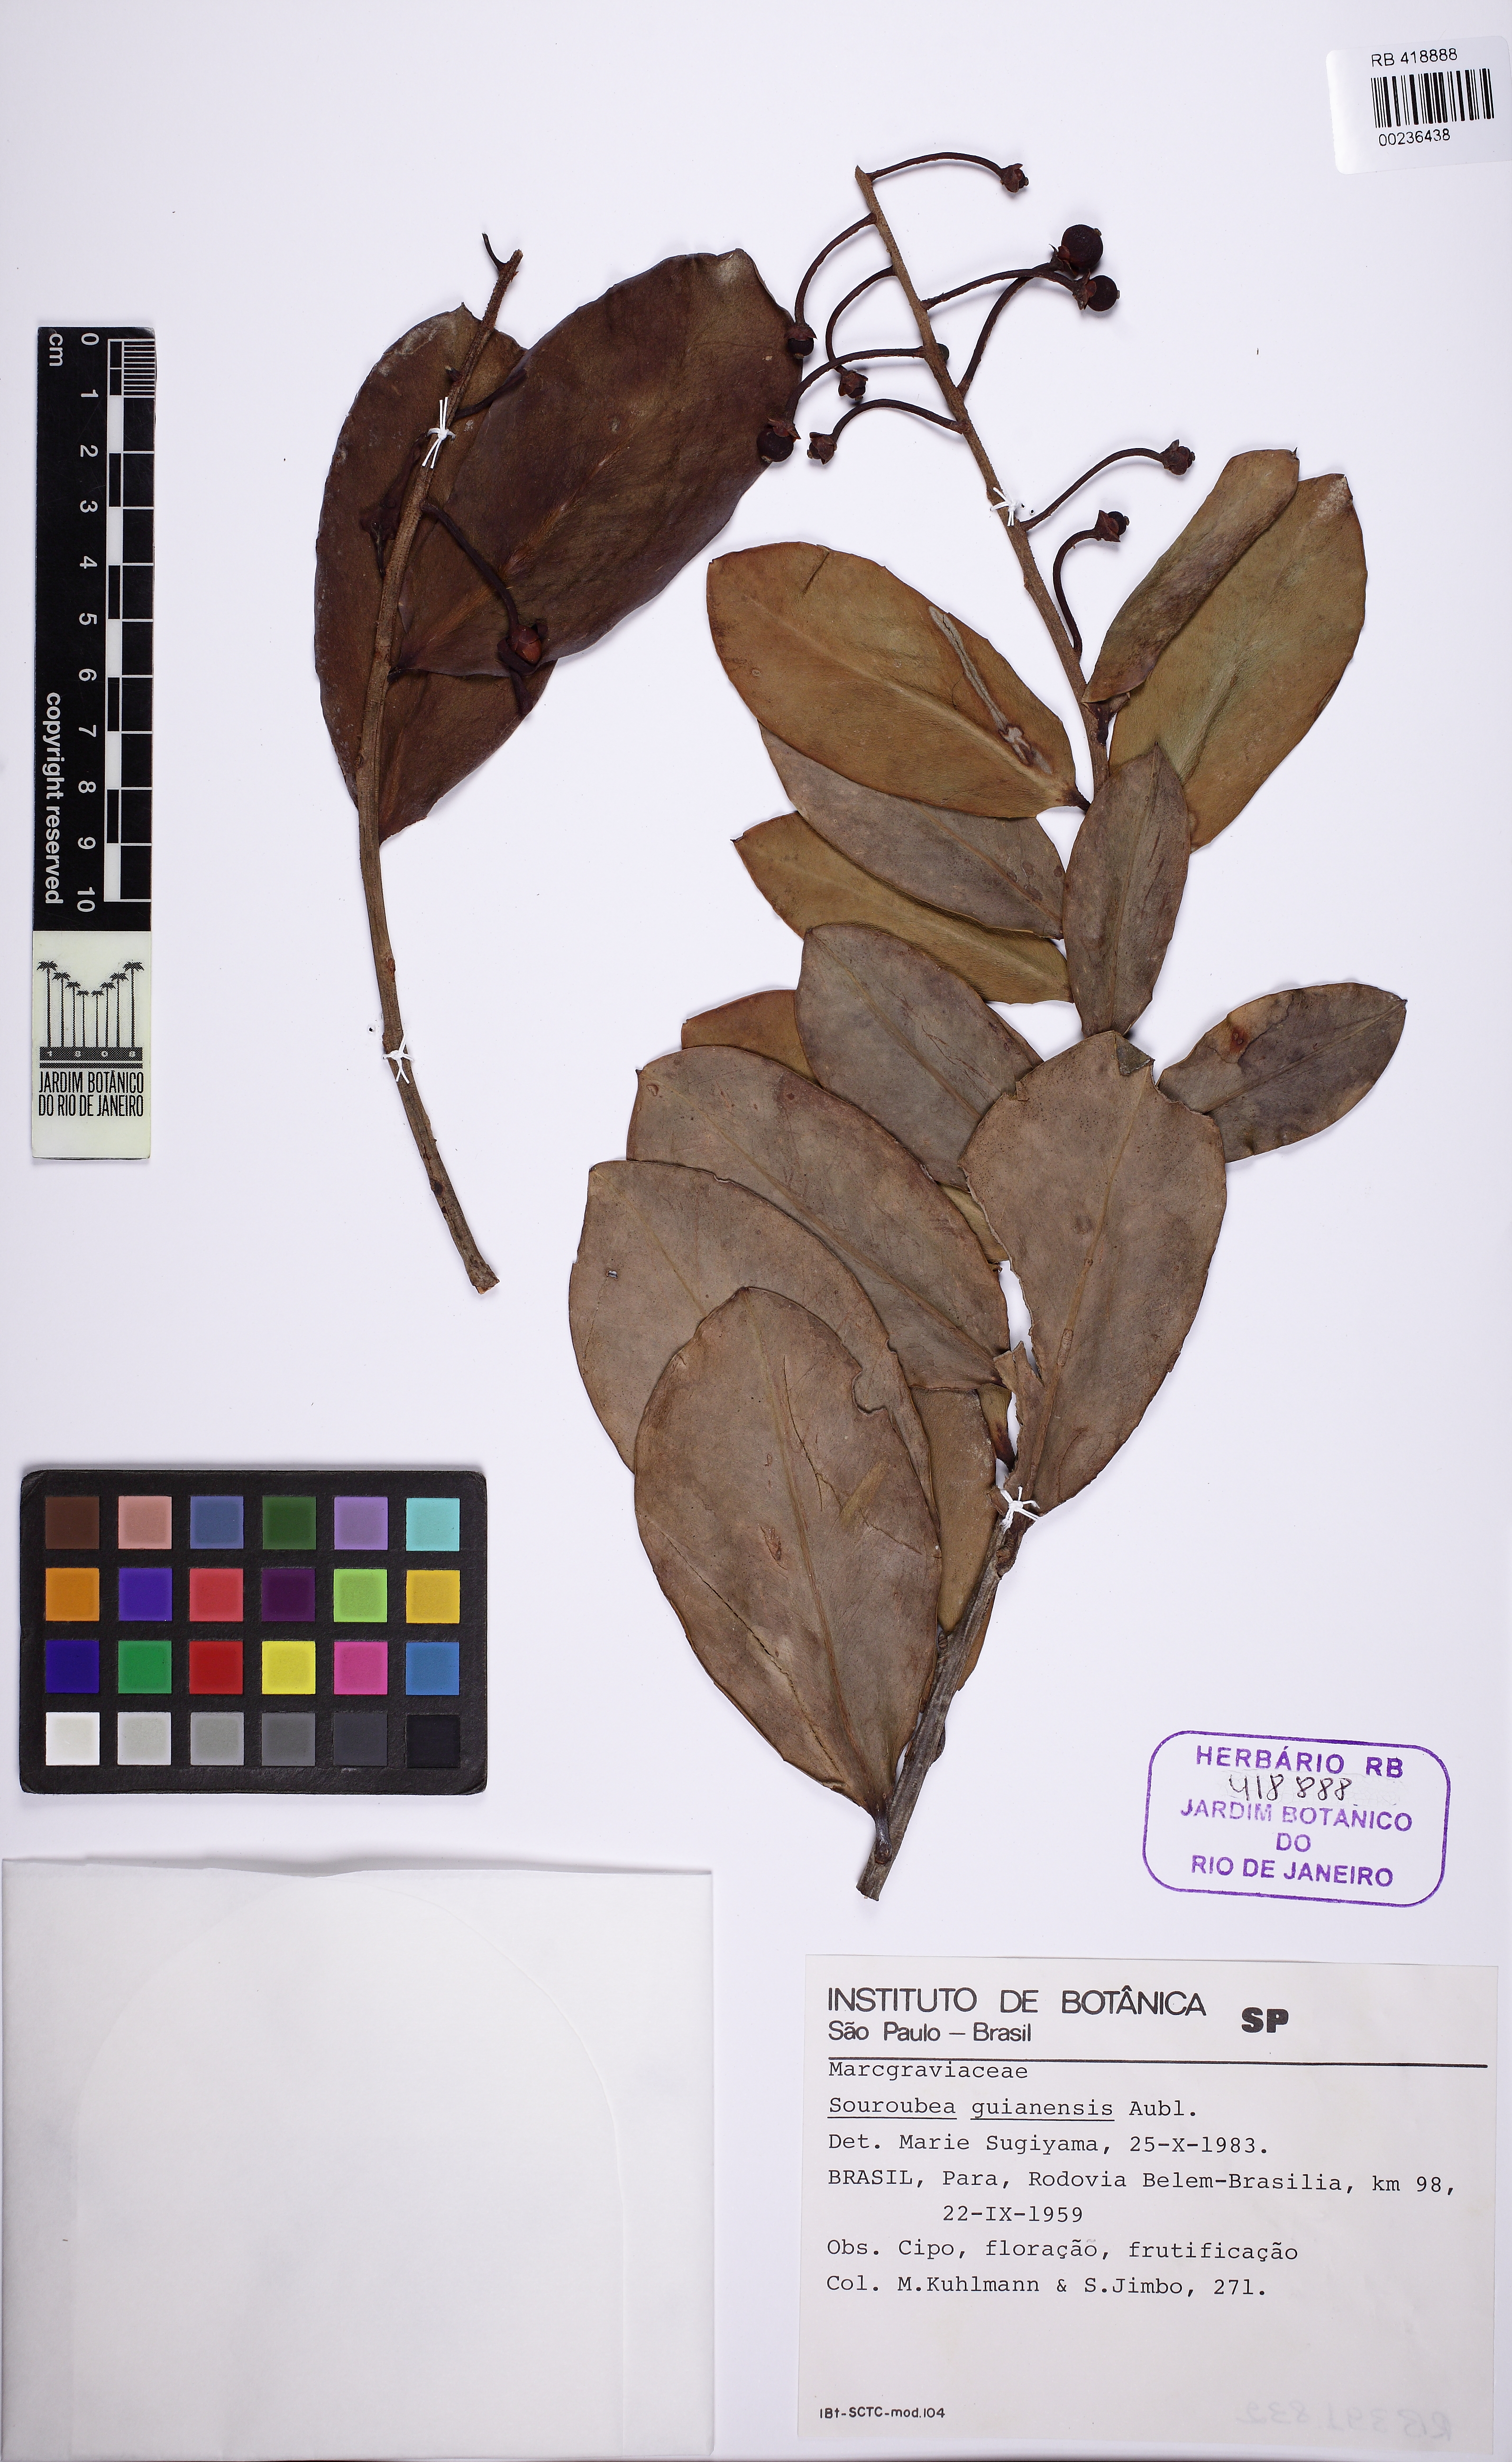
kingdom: Plantae
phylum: Tracheophyta
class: Magnoliopsida
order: Ericales
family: Marcgraviaceae
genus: Souroubea
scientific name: Souroubea guianensis
